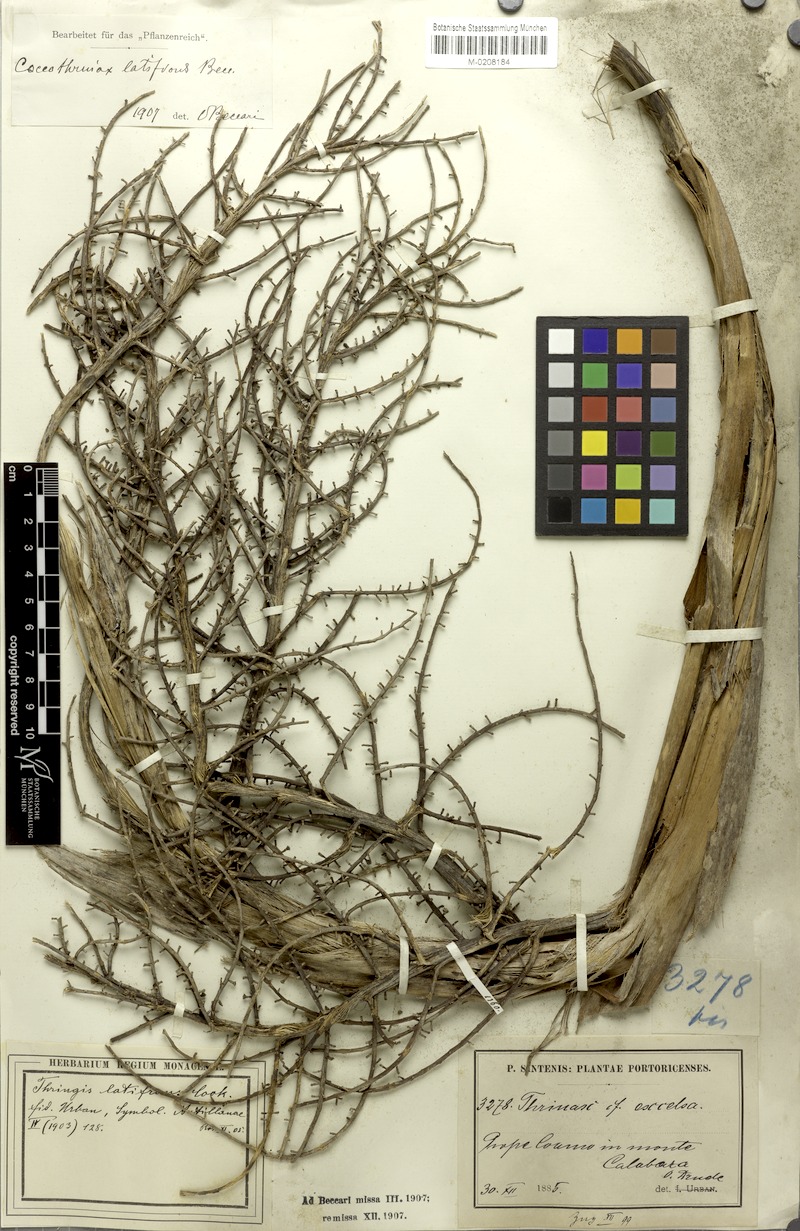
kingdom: Plantae
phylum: Tracheophyta
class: Liliopsida
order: Arecales
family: Arecaceae
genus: Coccothrinax
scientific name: Coccothrinax barbadensis
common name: Thatch palm
